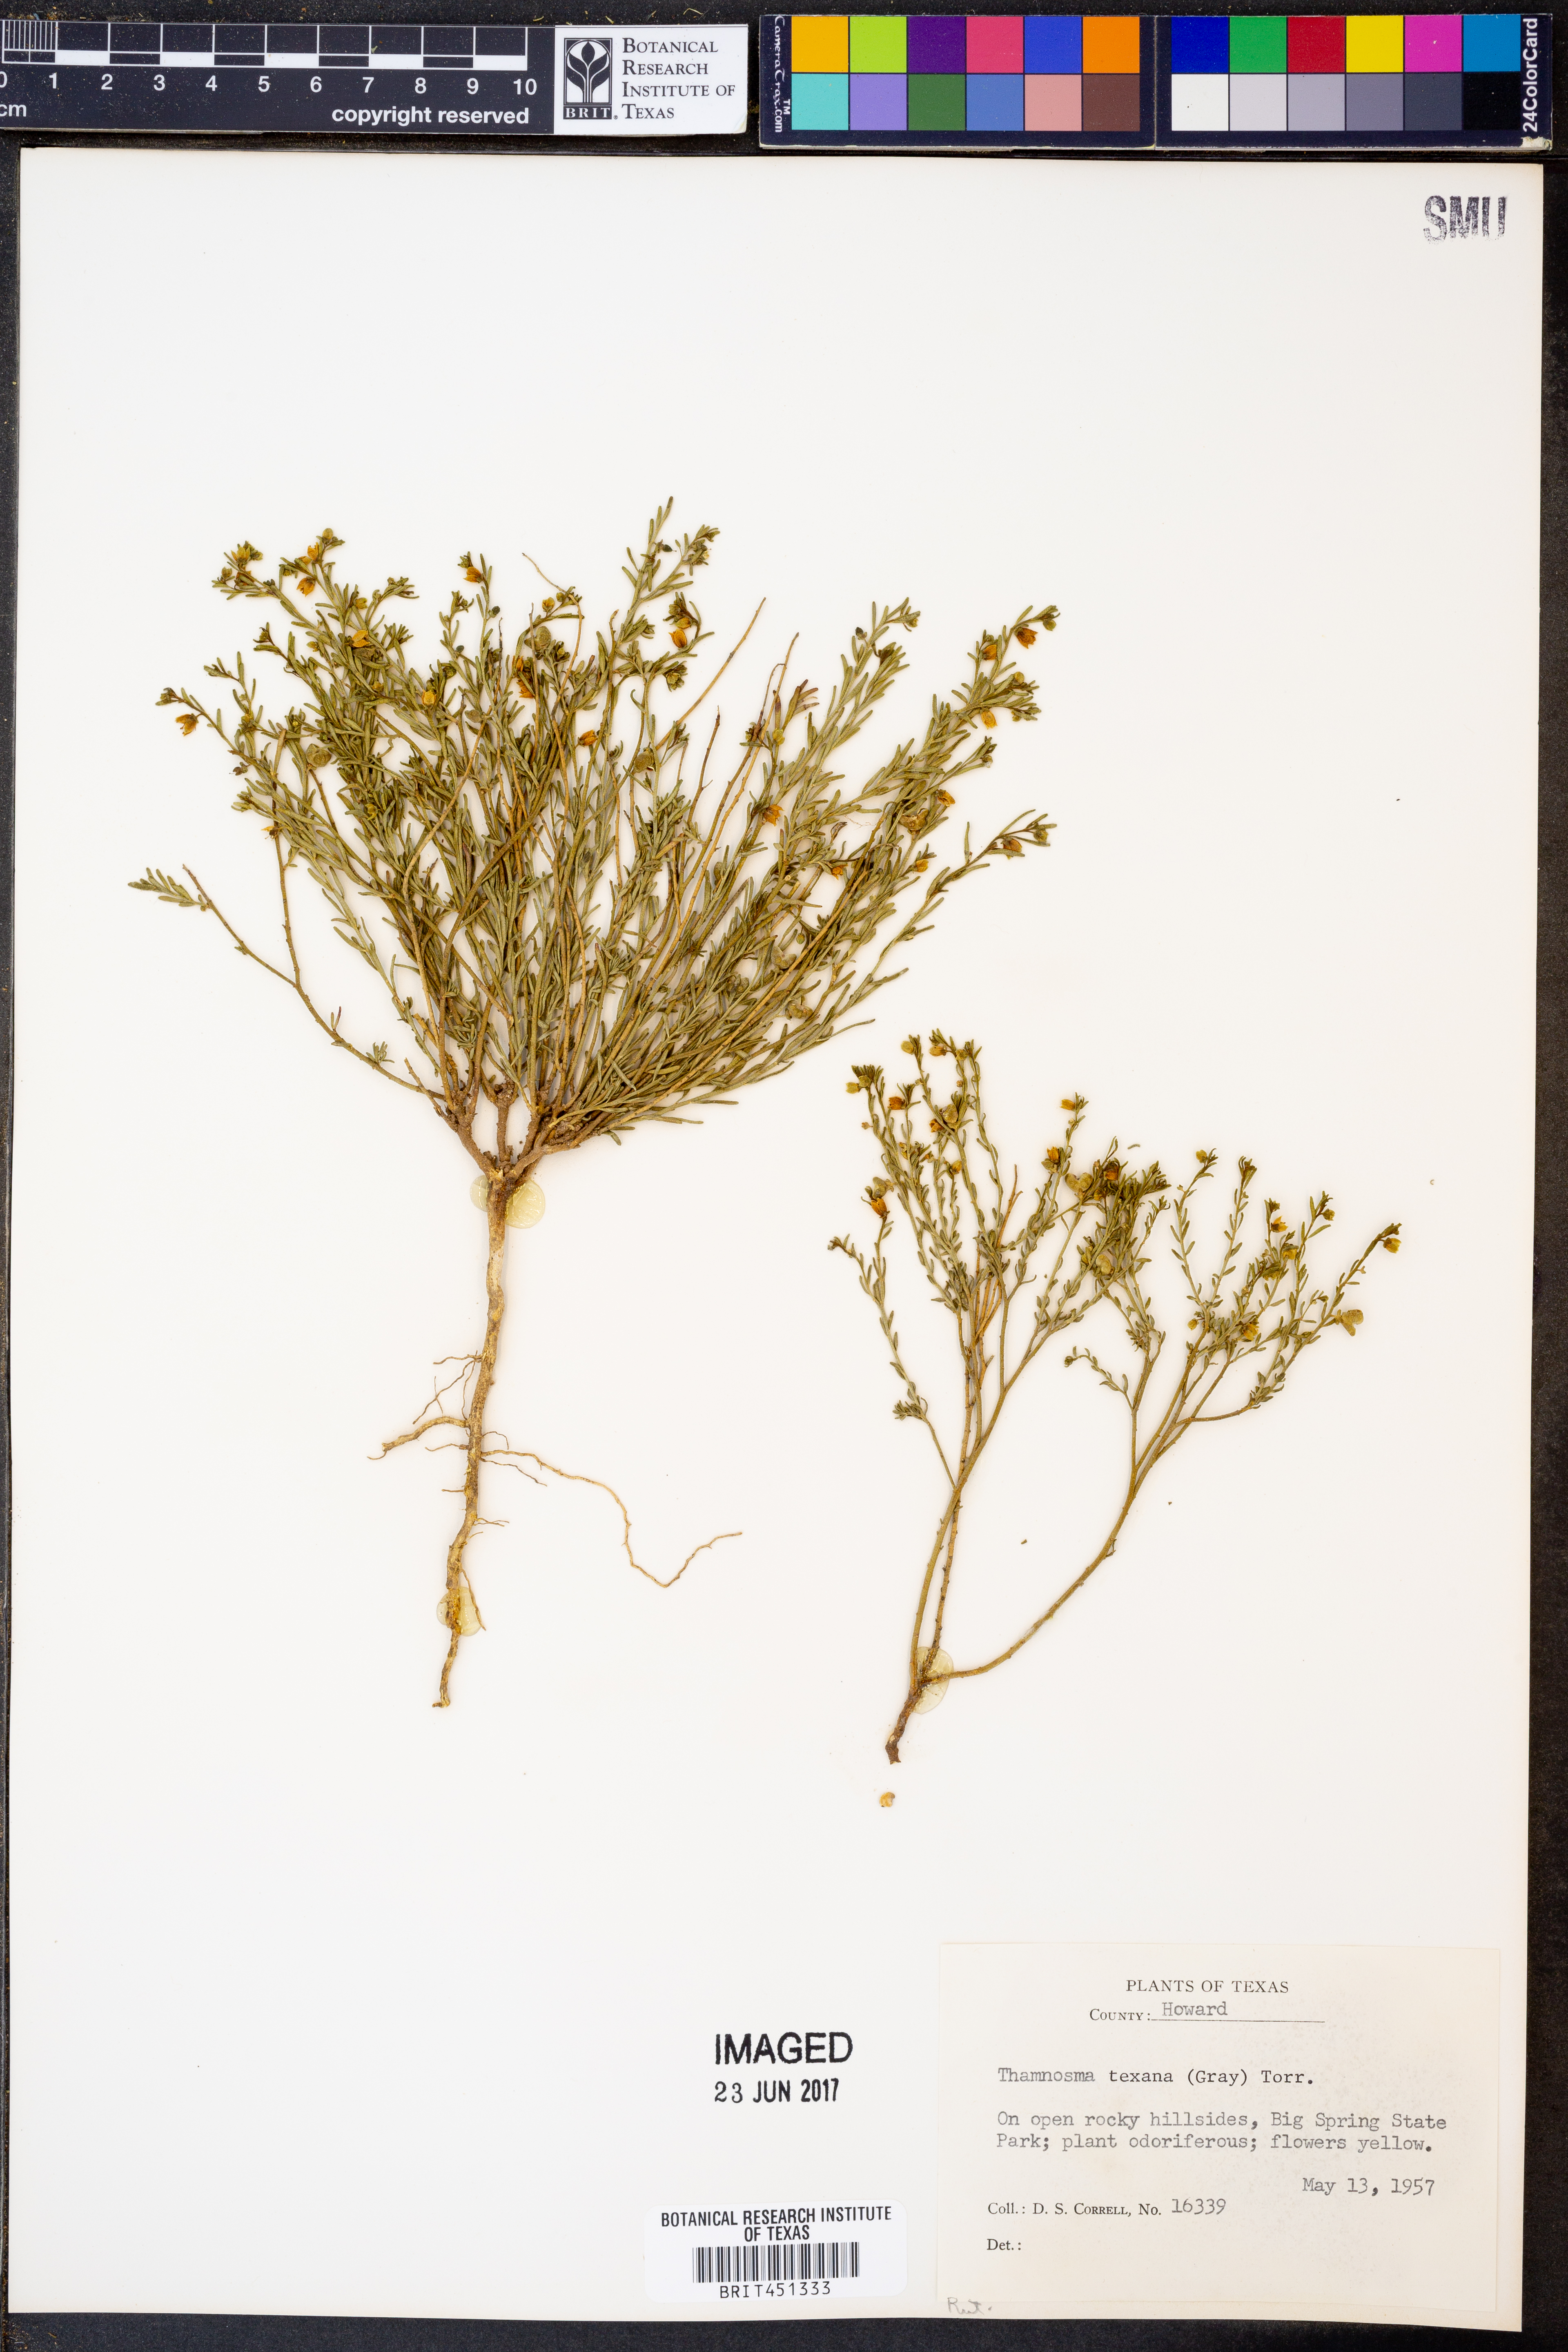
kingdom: Plantae
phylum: Tracheophyta
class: Magnoliopsida
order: Sapindales
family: Rutaceae
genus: Thamnosma
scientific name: Thamnosma texana
